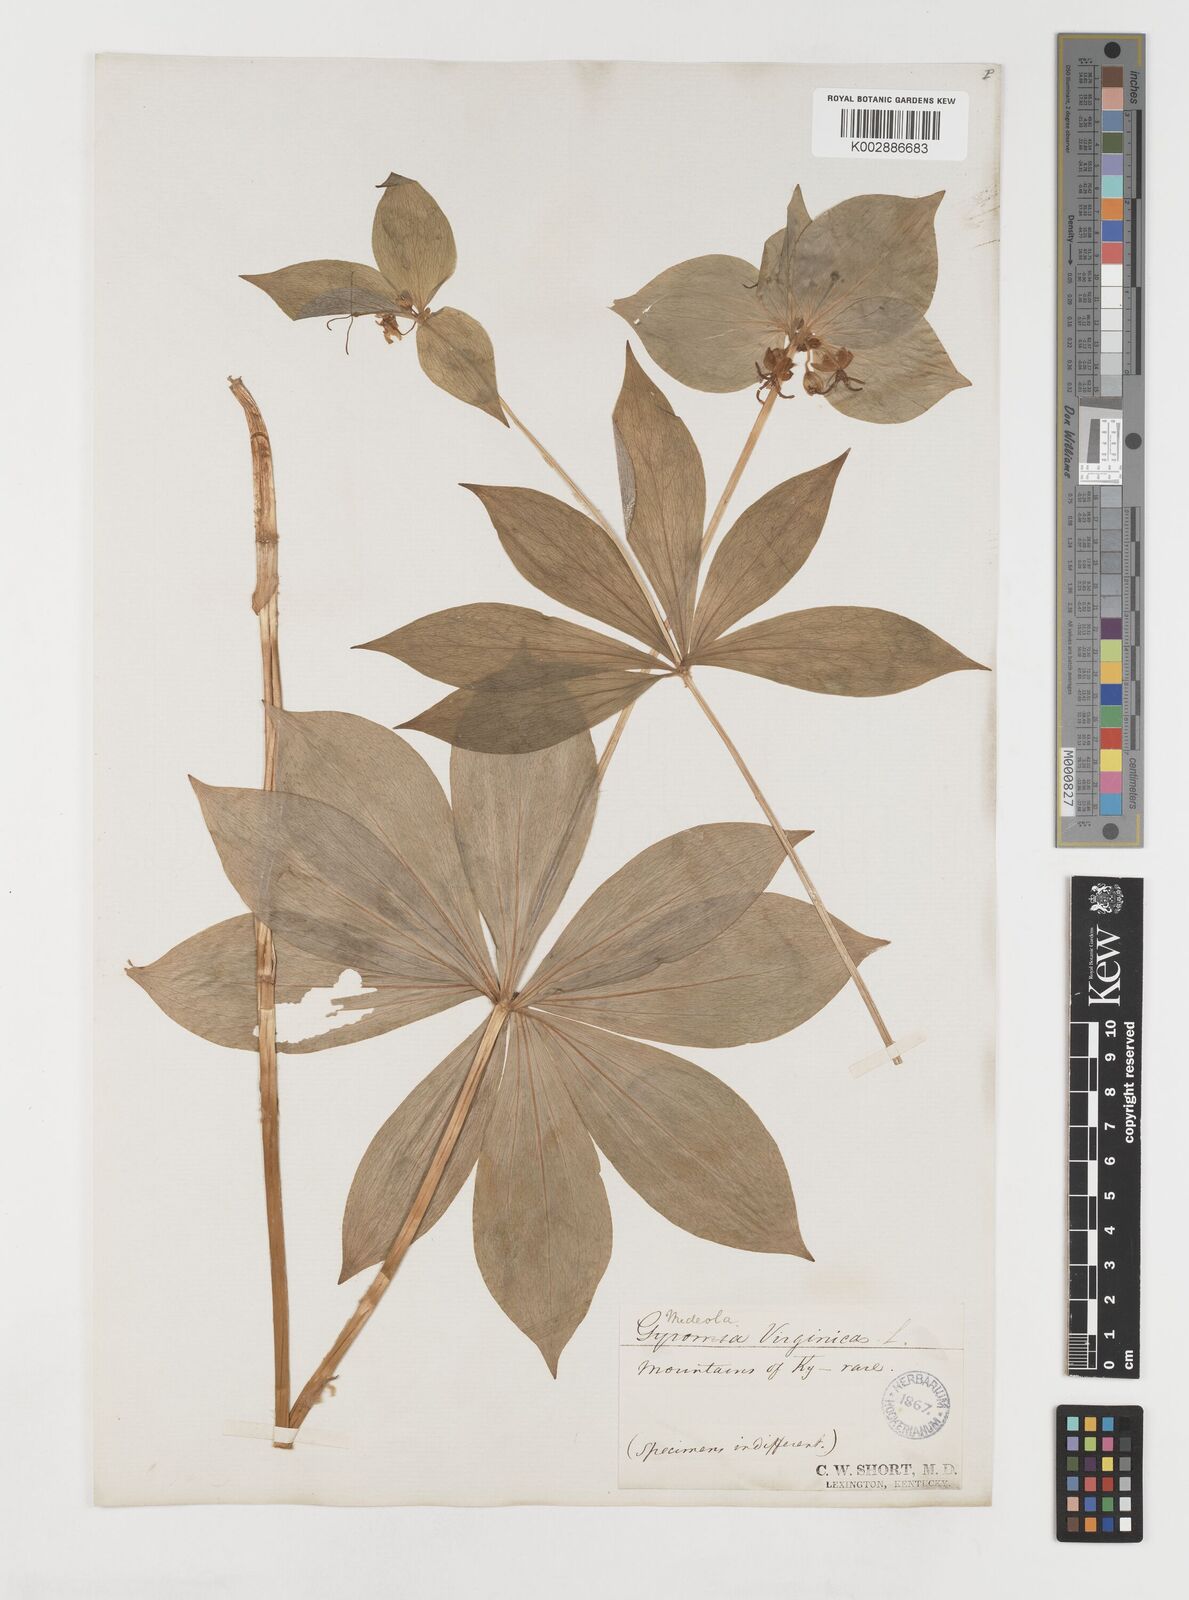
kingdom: Plantae
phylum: Tracheophyta
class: Liliopsida
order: Liliales
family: Liliaceae
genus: Medeola
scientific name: Medeola virginiana
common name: Indian cucumber-root
